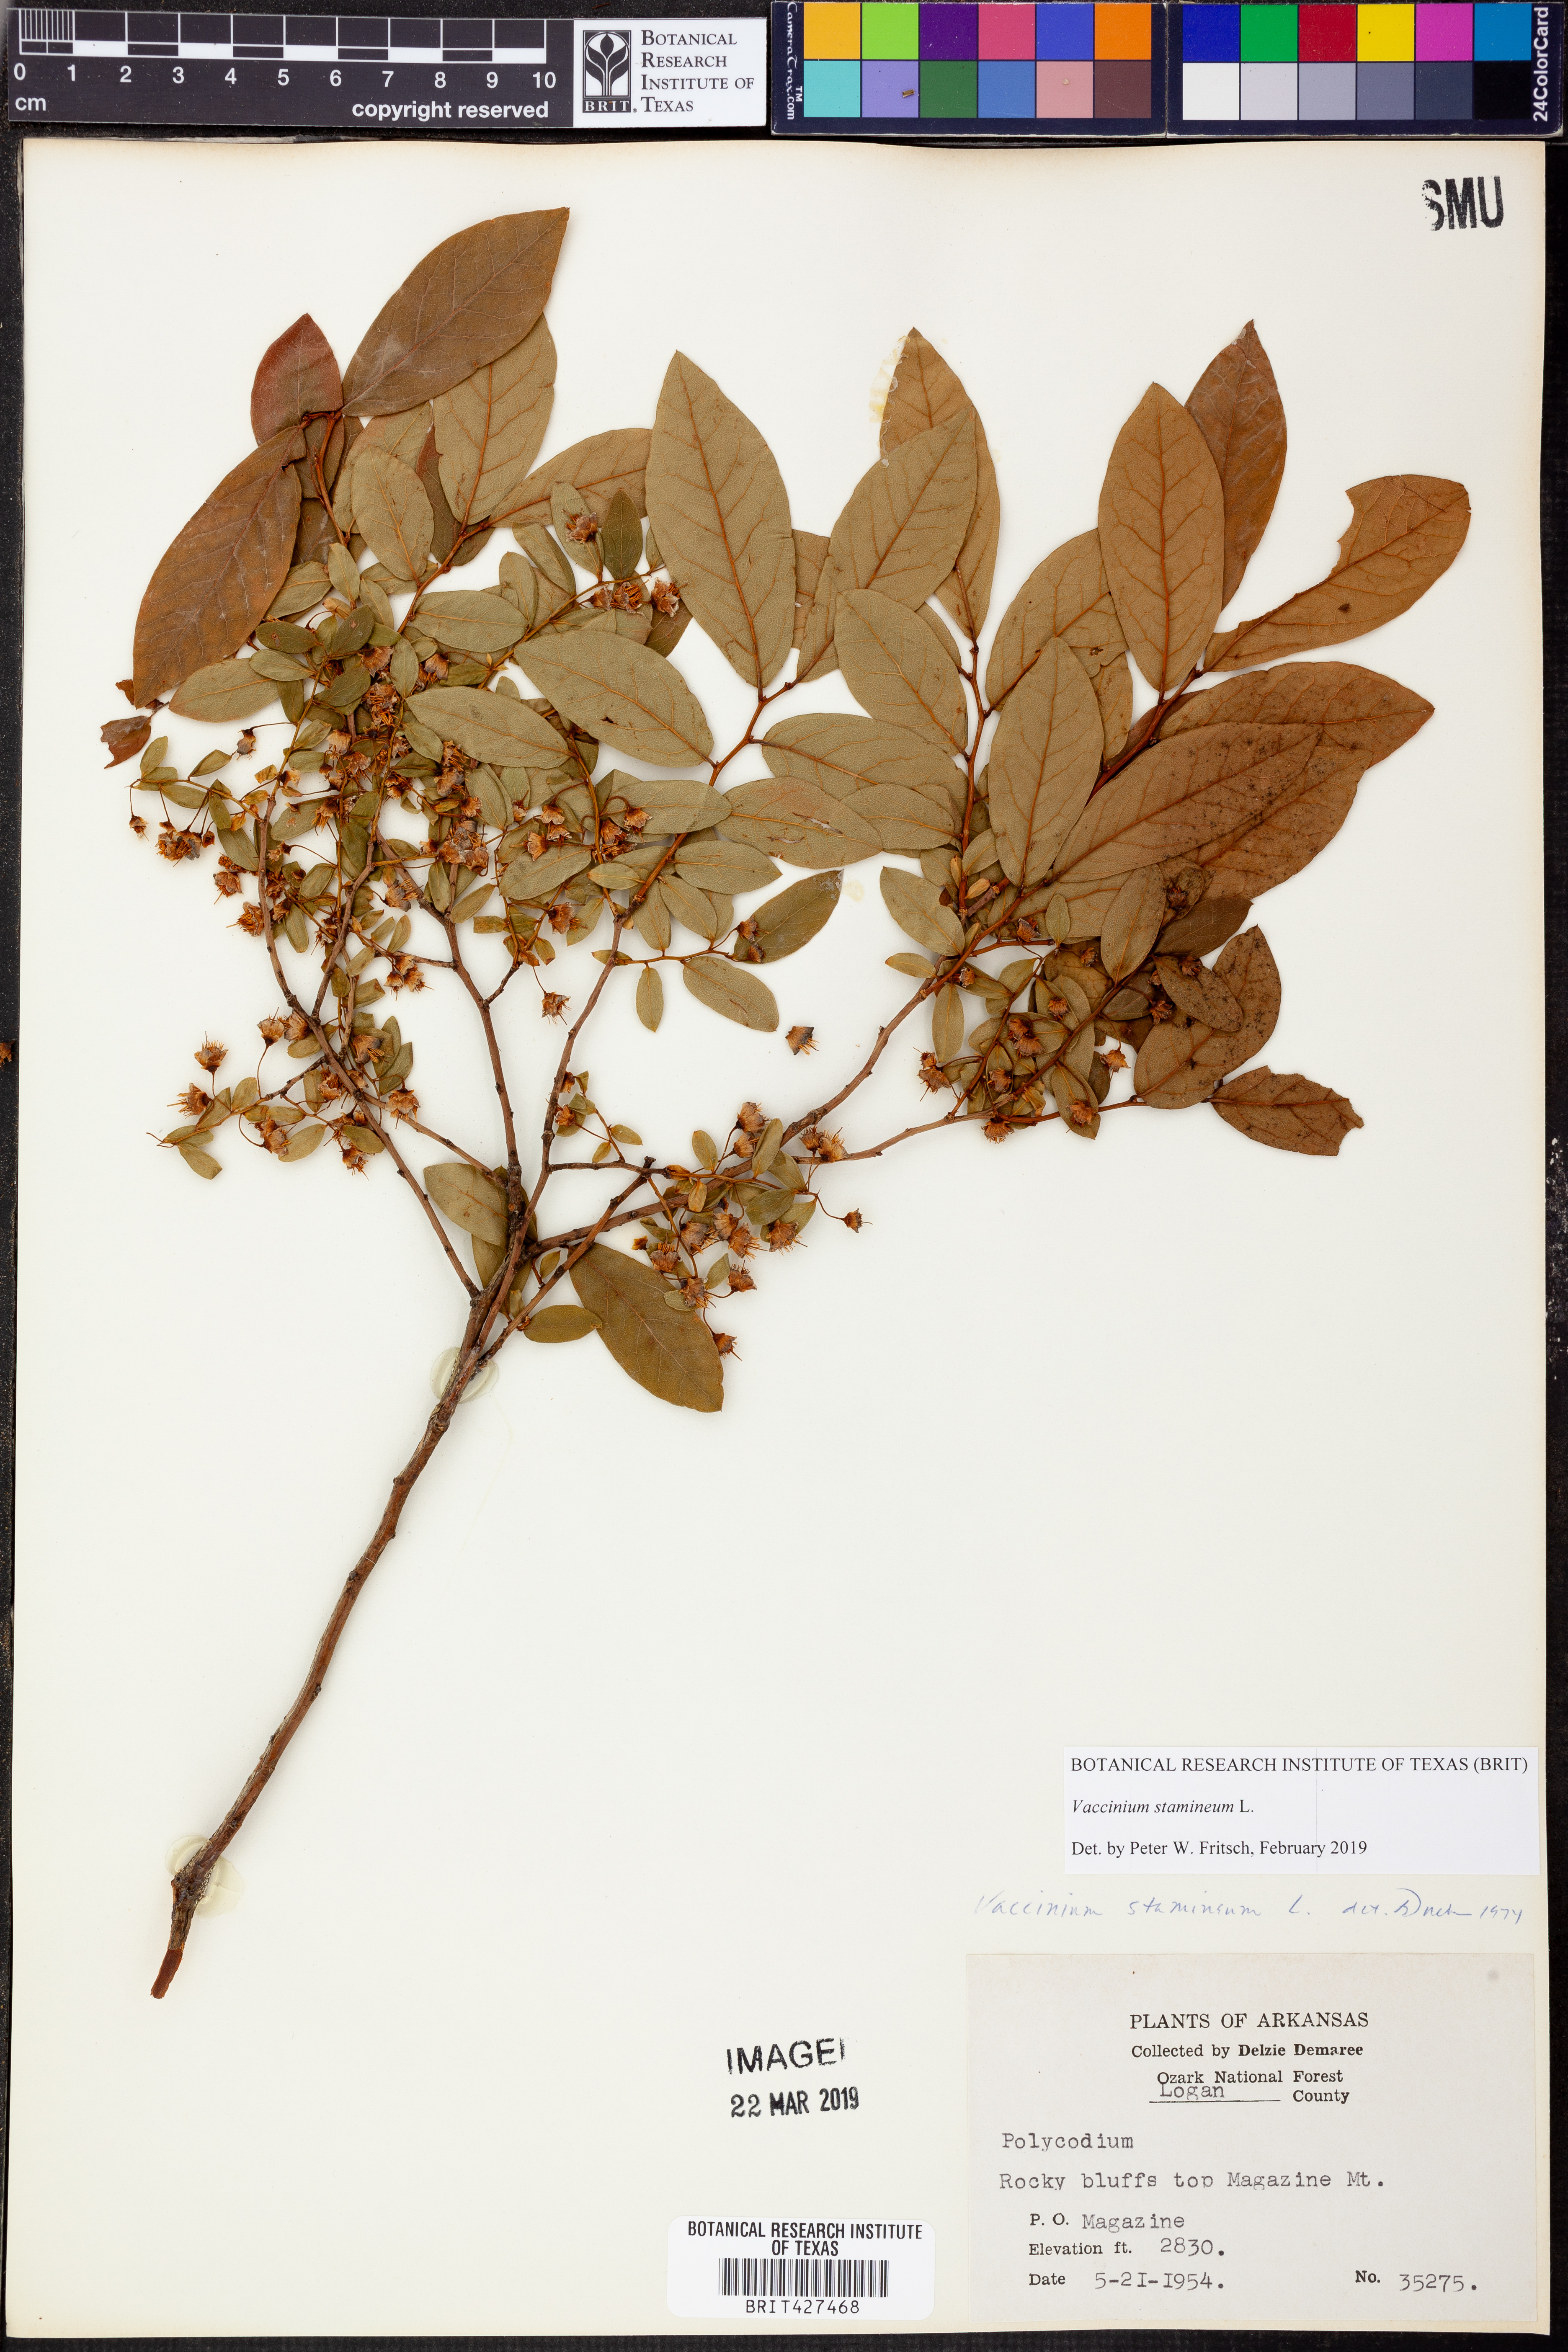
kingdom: Plantae
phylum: Tracheophyta
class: Magnoliopsida
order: Ericales
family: Ericaceae
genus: Vaccinium
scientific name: Vaccinium stamineum
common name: Deerberry
